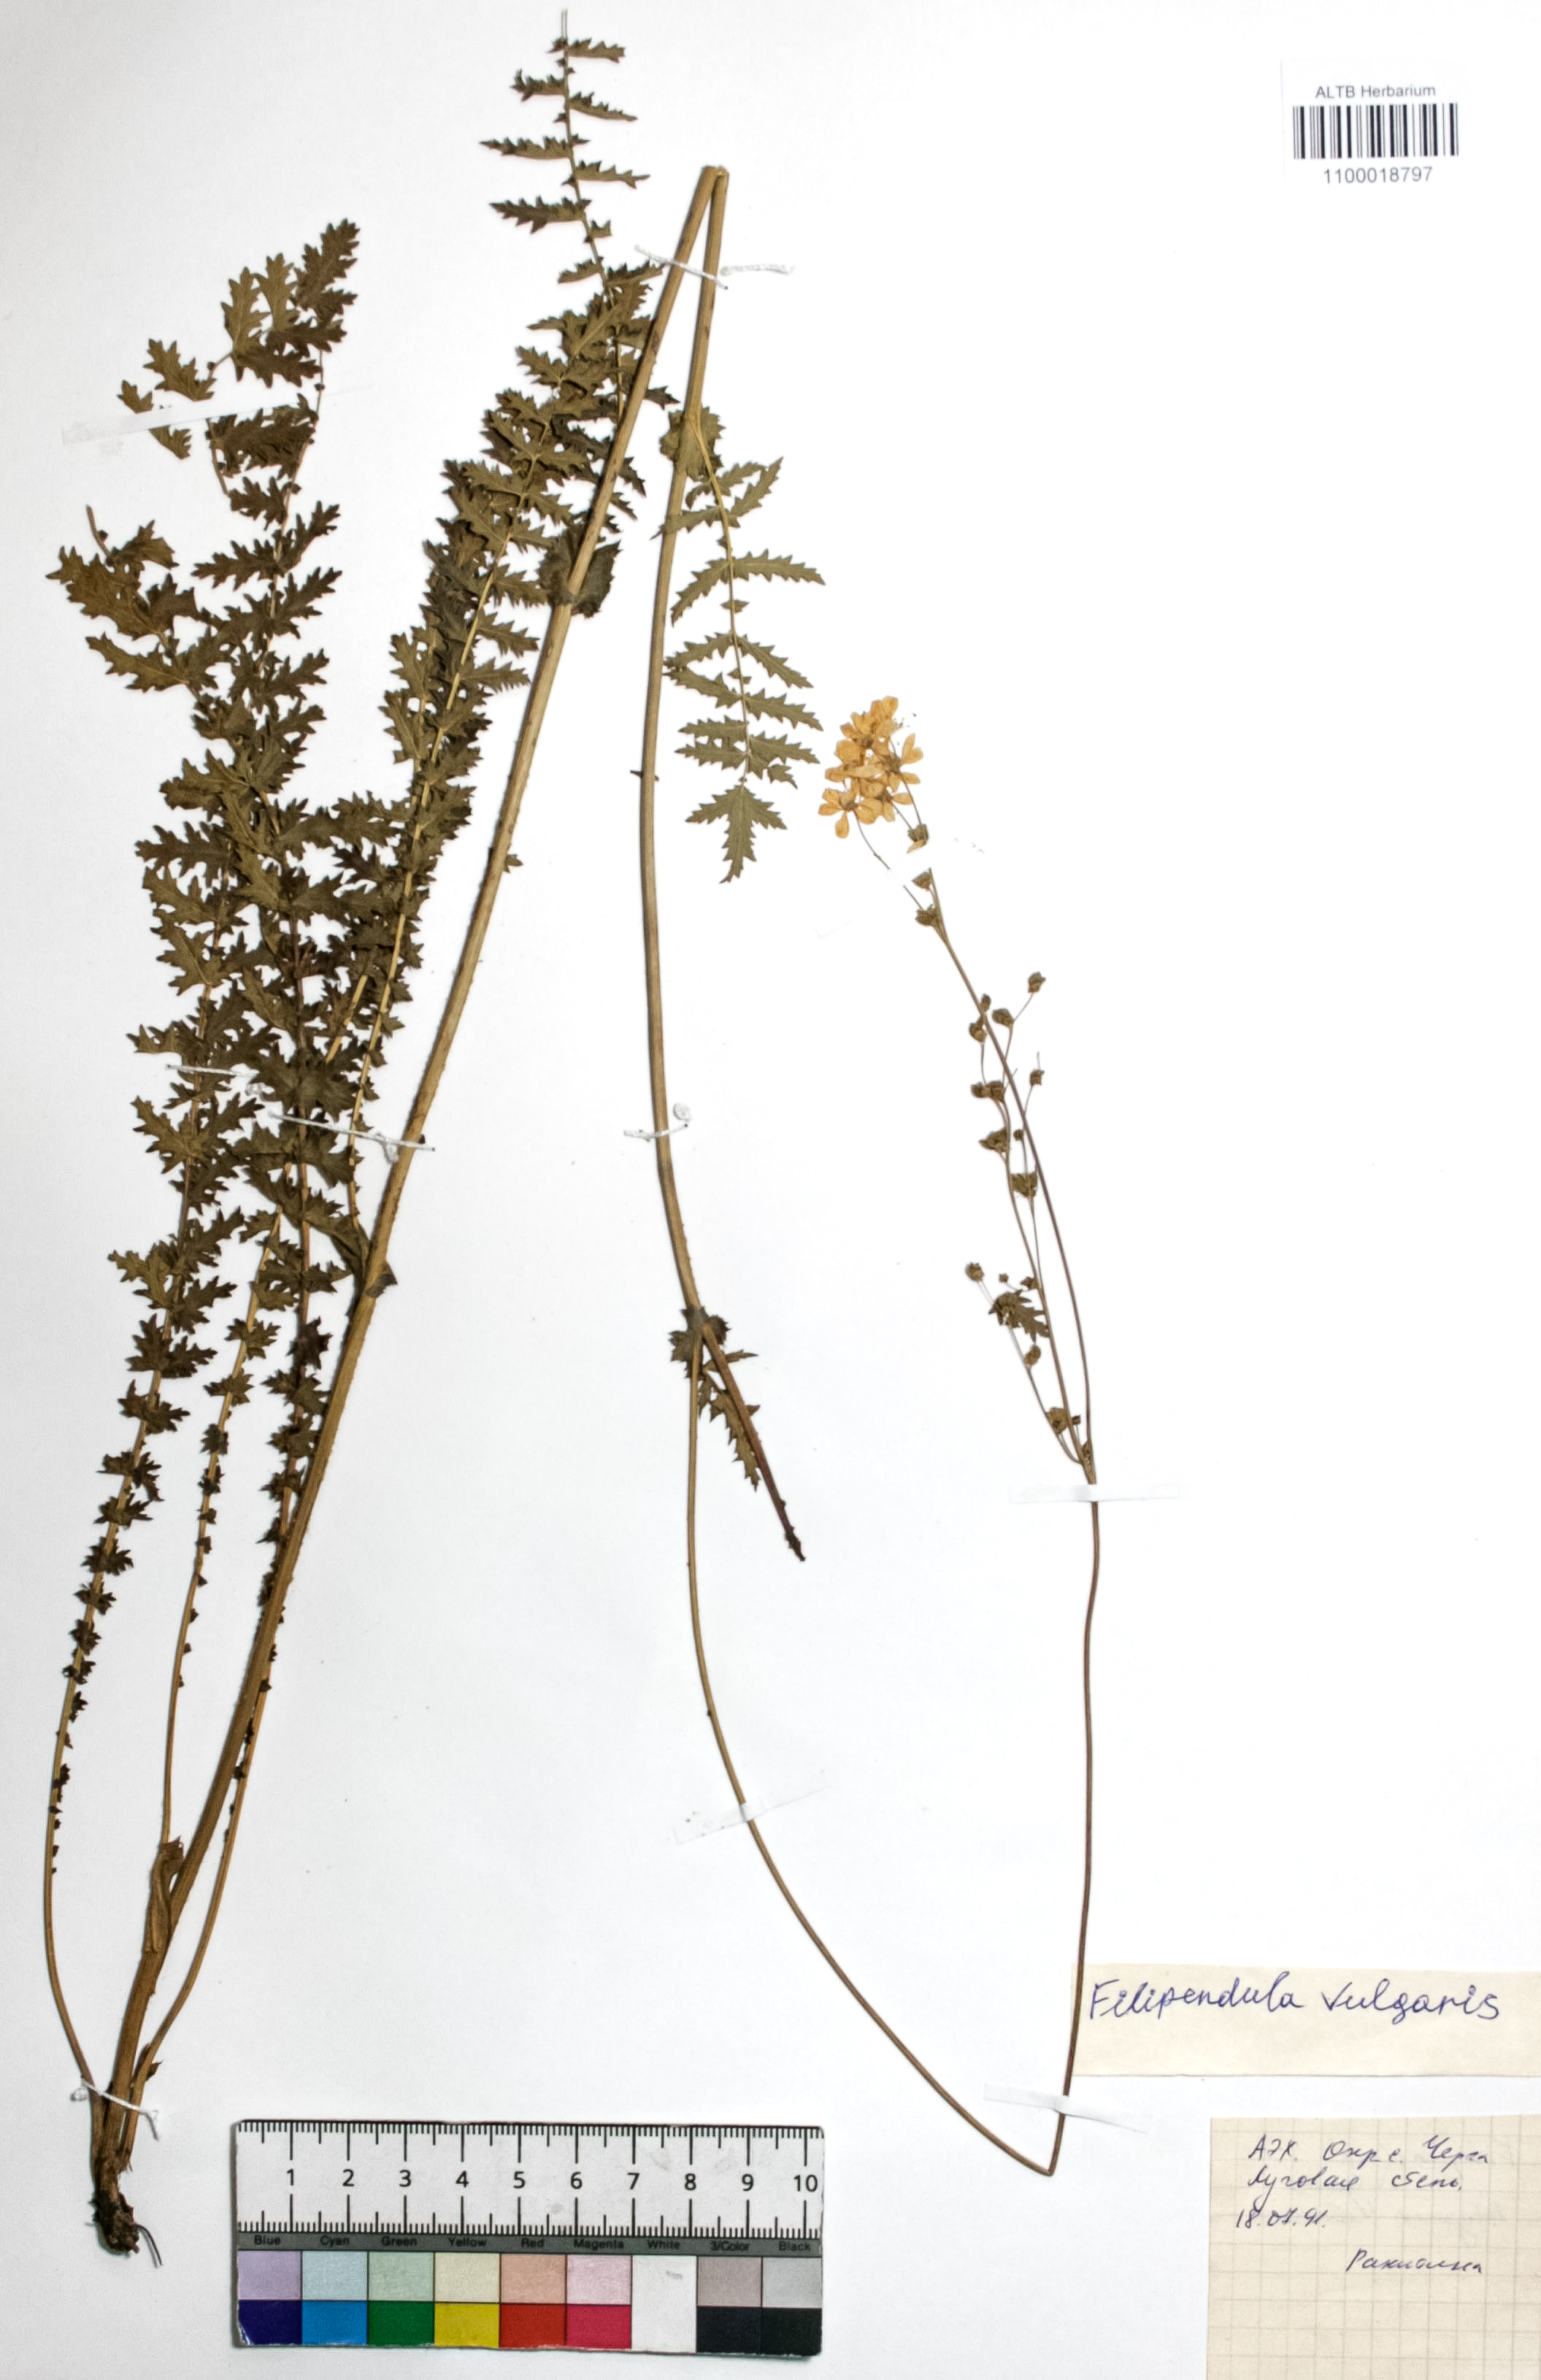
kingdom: Plantae
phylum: Tracheophyta
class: Magnoliopsida
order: Rosales
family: Rosaceae
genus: Filipendula
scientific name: Filipendula vulgaris
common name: Dropwort
